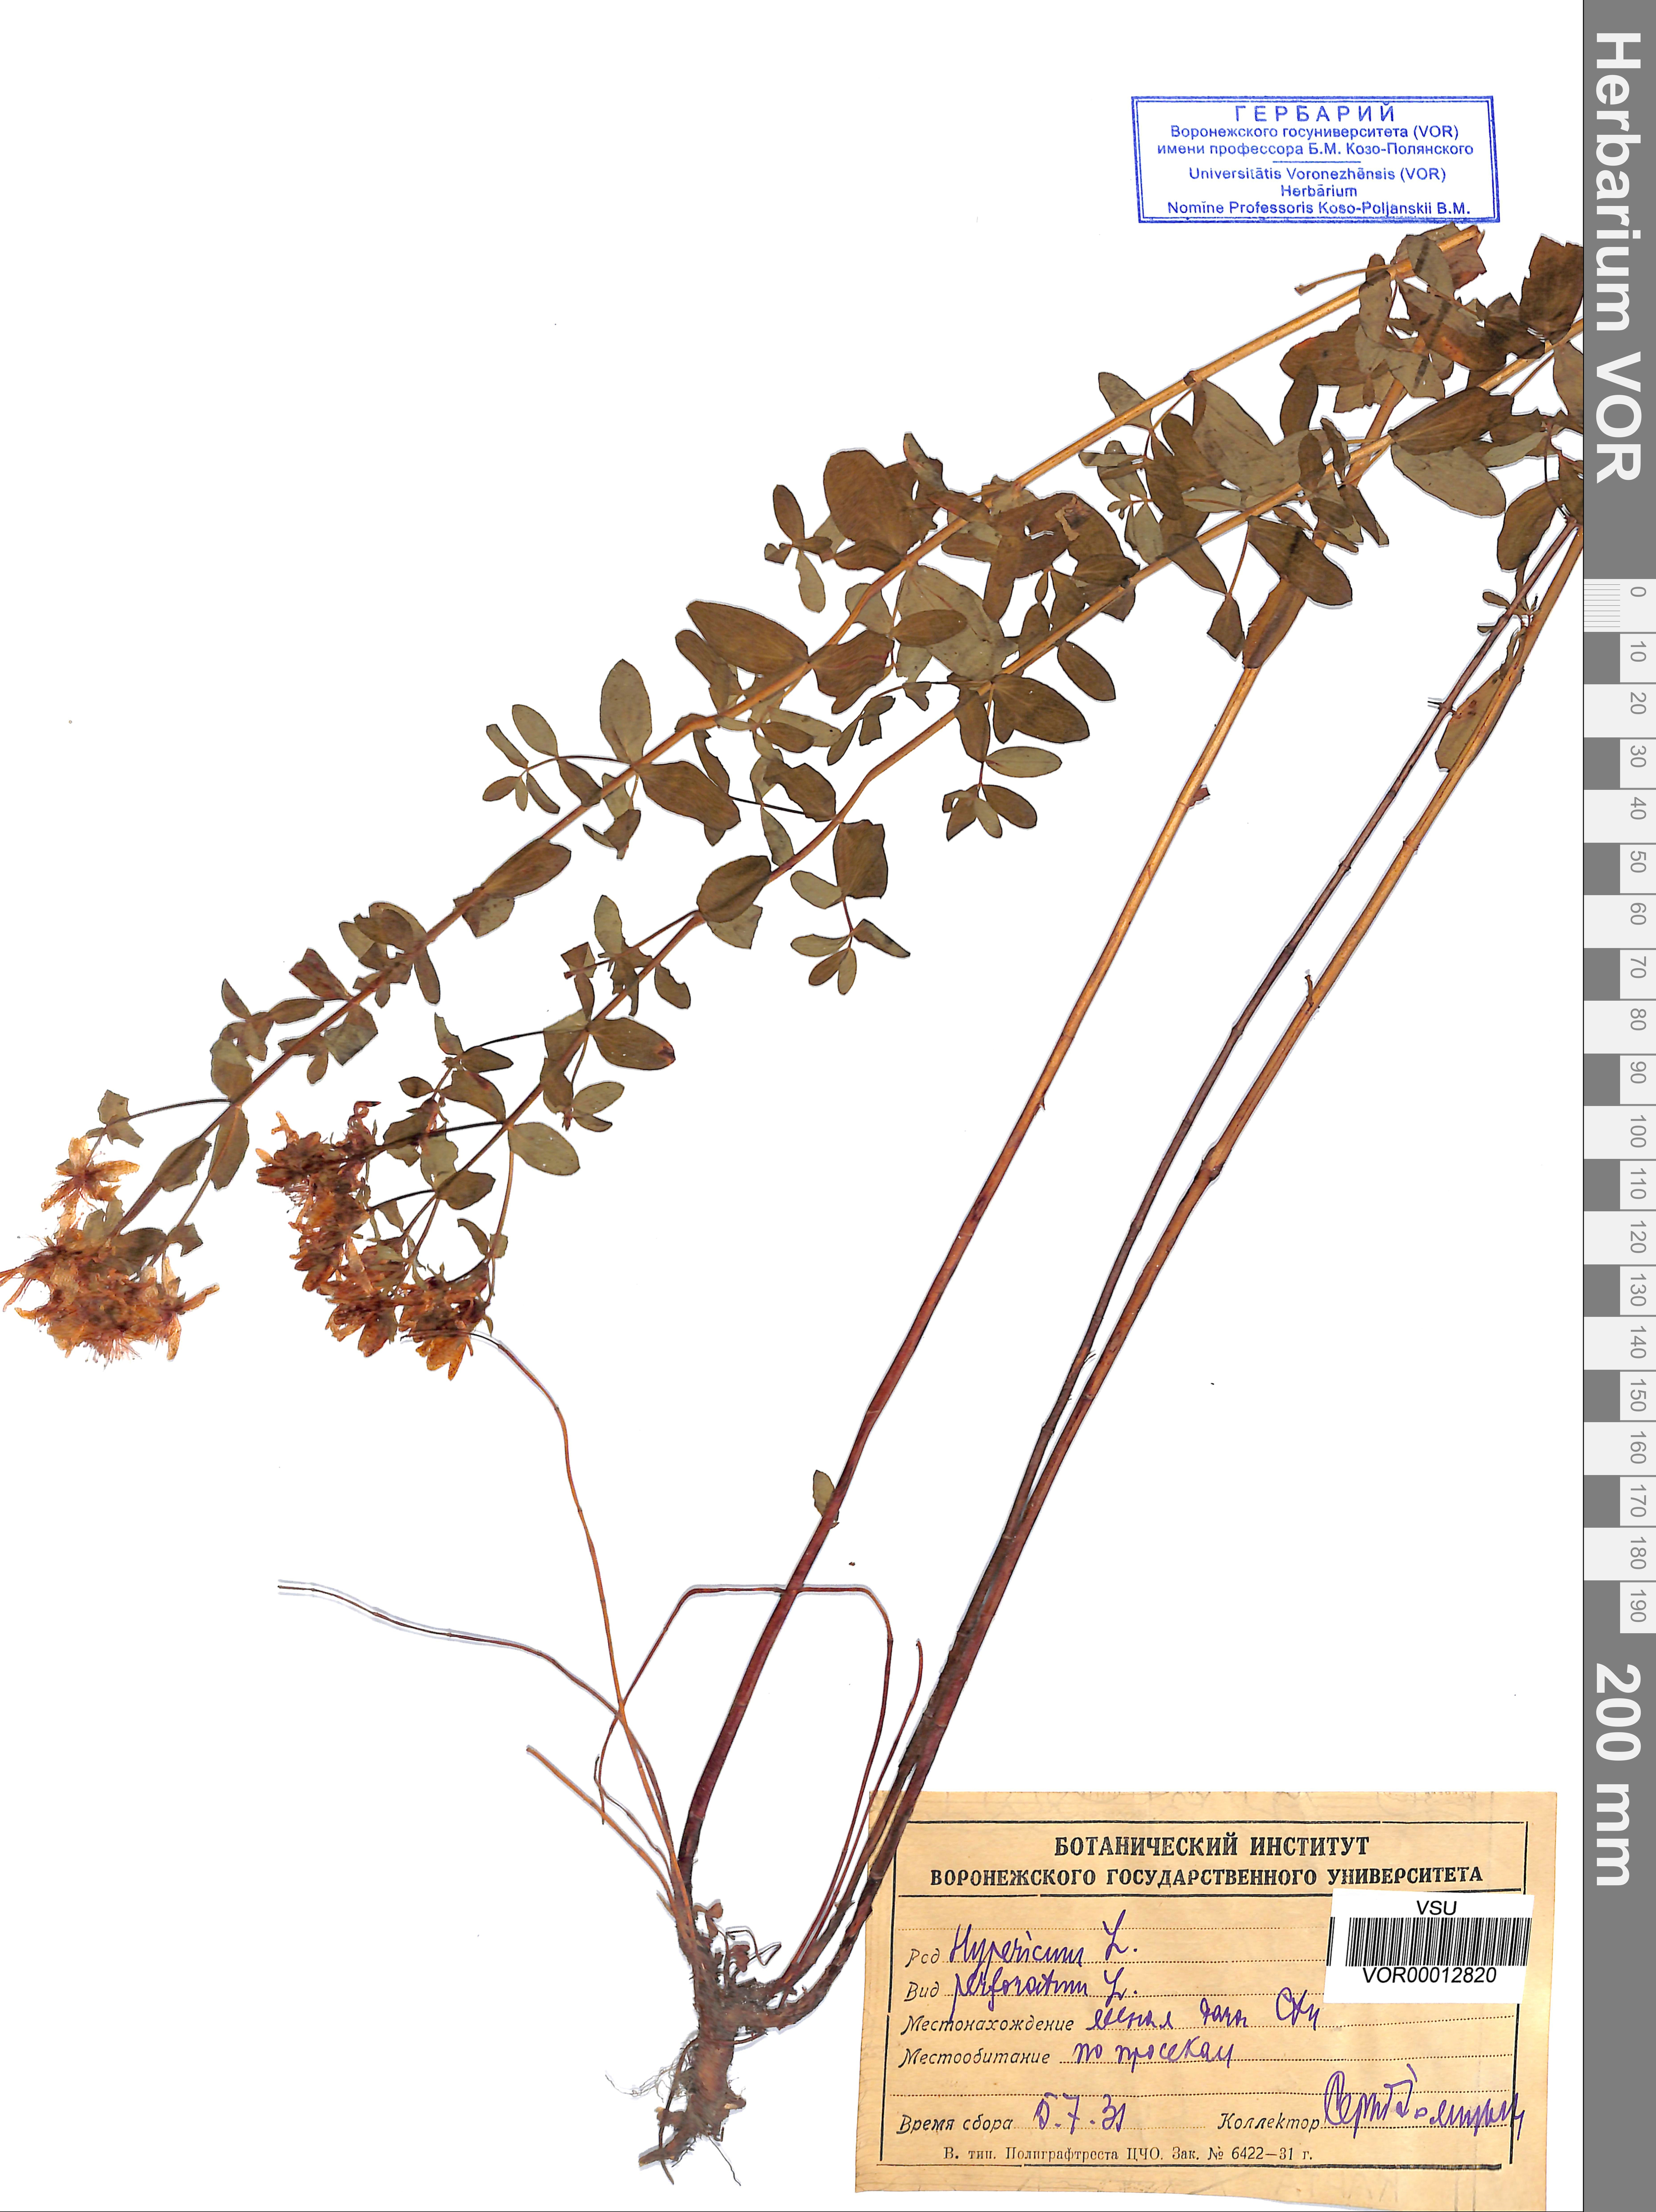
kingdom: Plantae
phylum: Tracheophyta
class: Magnoliopsida
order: Malpighiales
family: Hypericaceae
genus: Hypericum
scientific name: Hypericum perforatum
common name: Common st. johnswort
